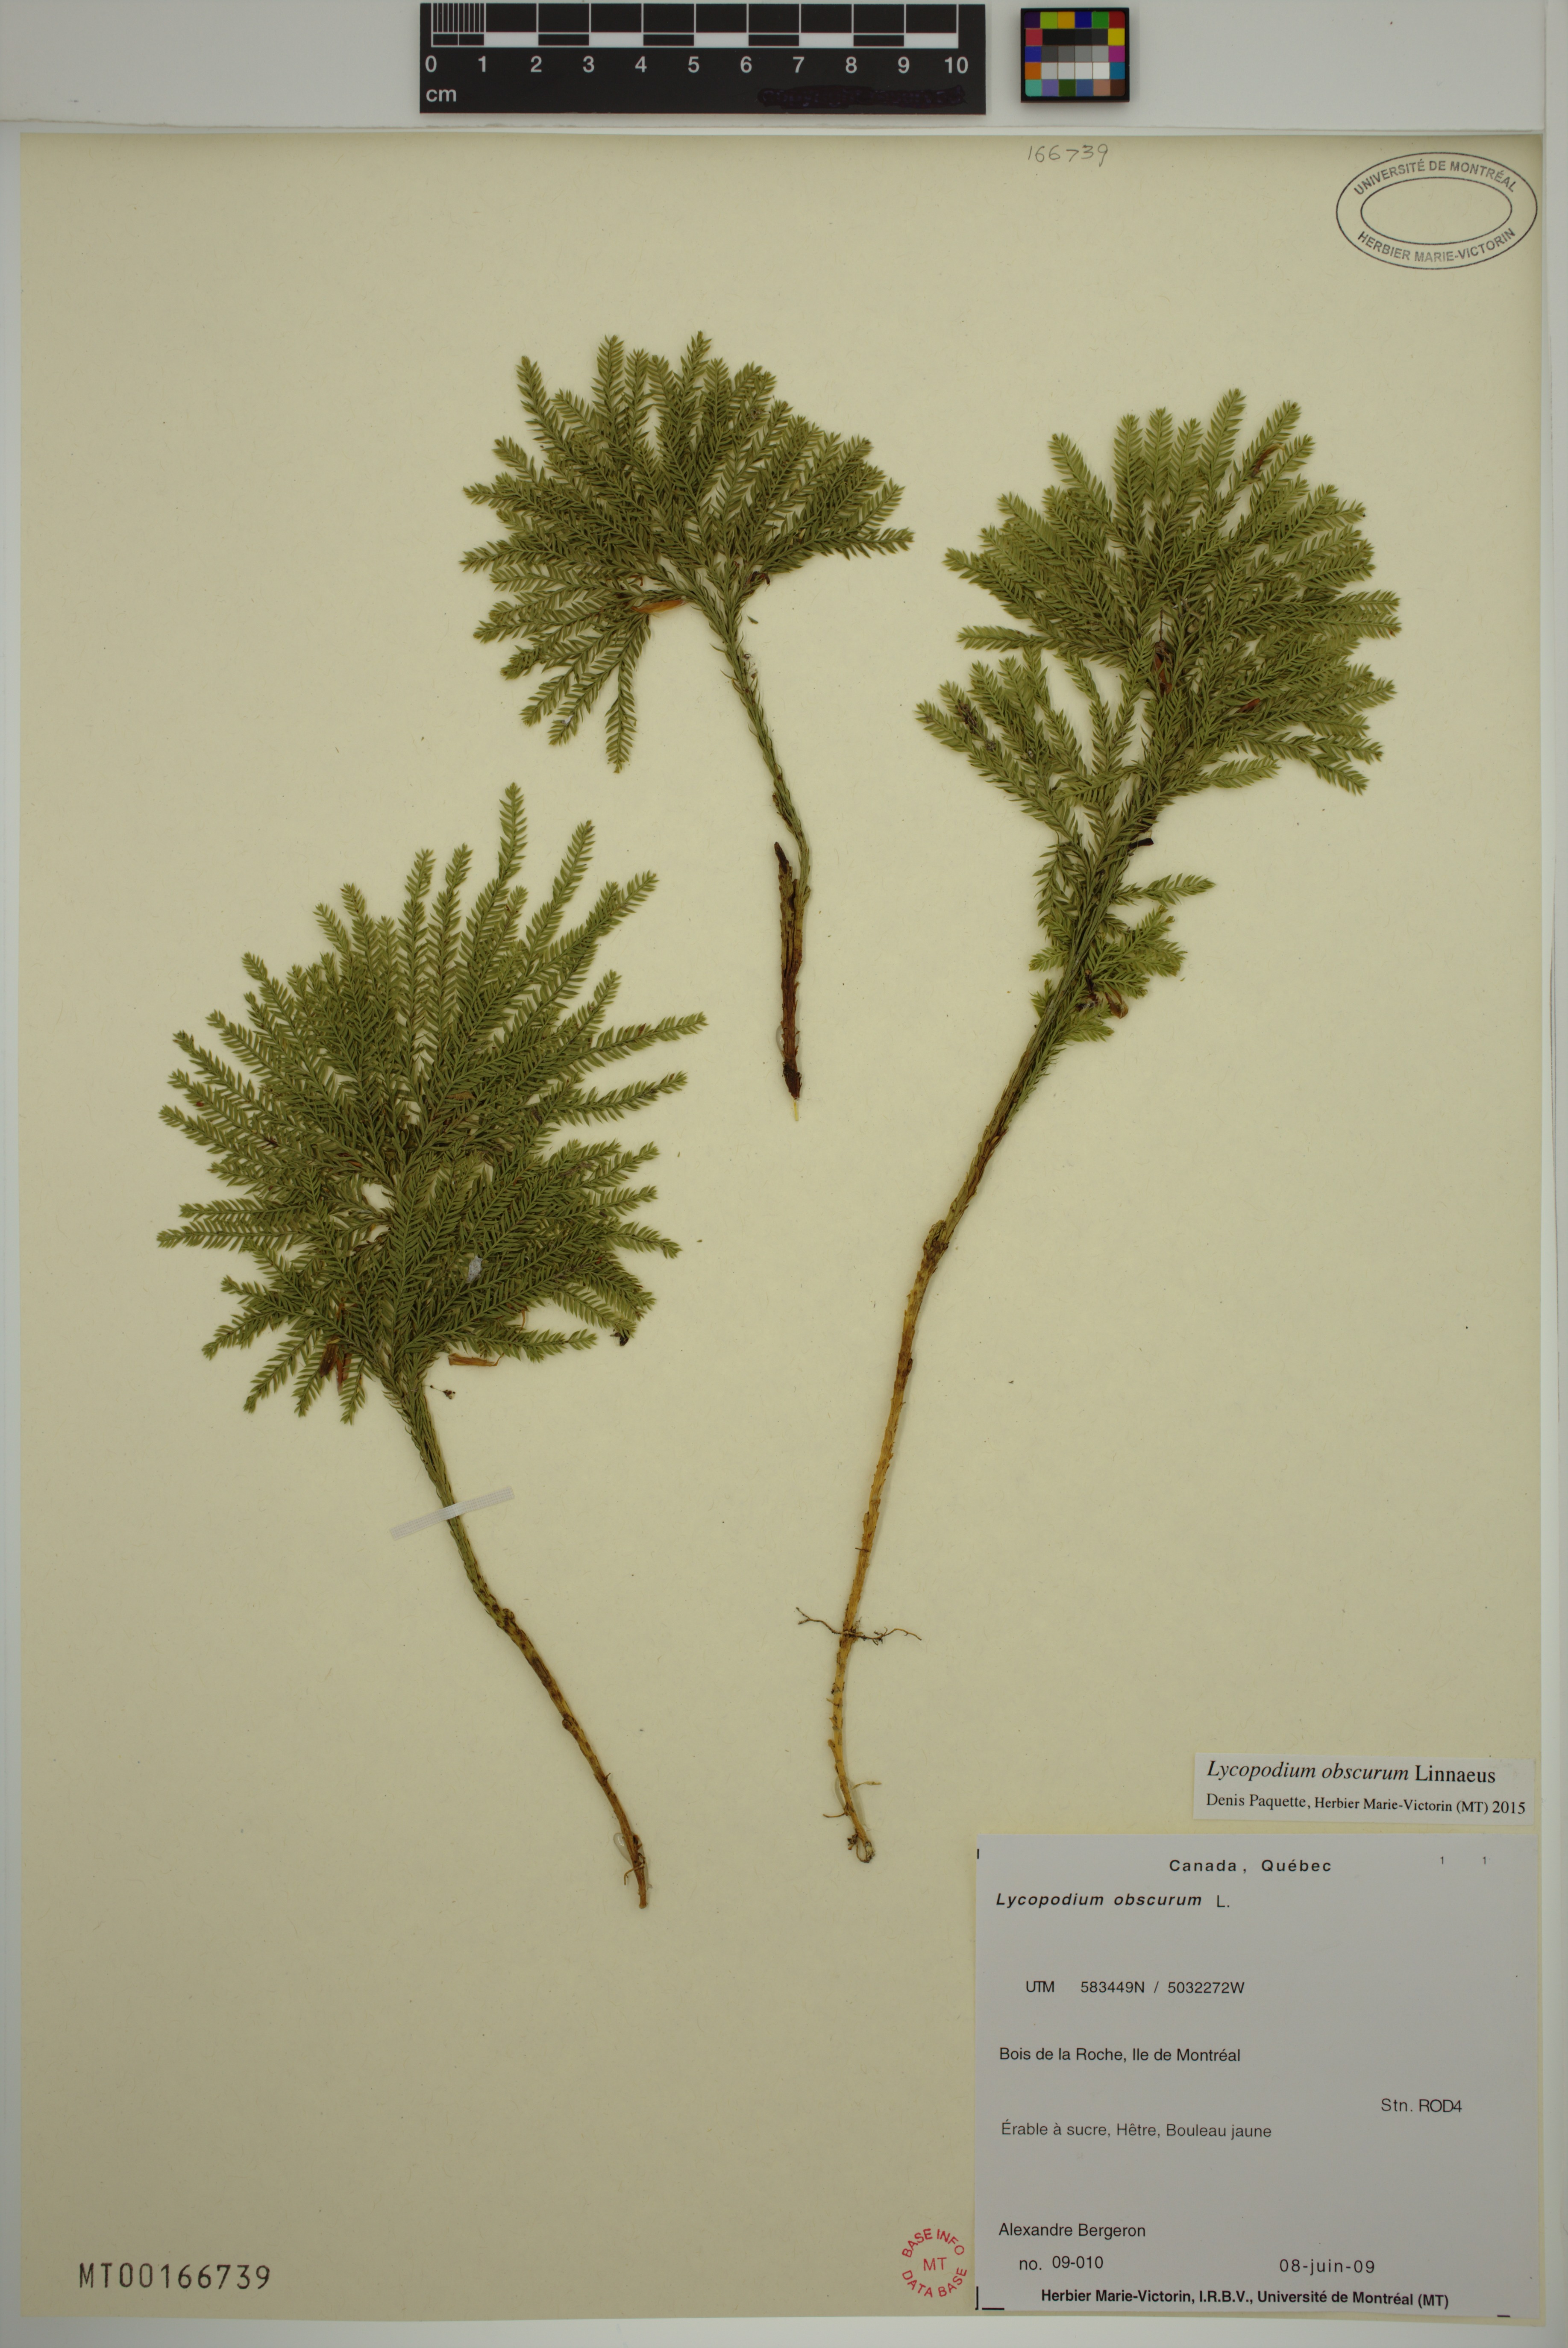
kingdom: Plantae
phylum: Tracheophyta
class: Lycopodiopsida
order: Lycopodiales
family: Lycopodiaceae
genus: Dendrolycopodium
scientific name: Dendrolycopodium obscurum
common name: Common ground-pine
